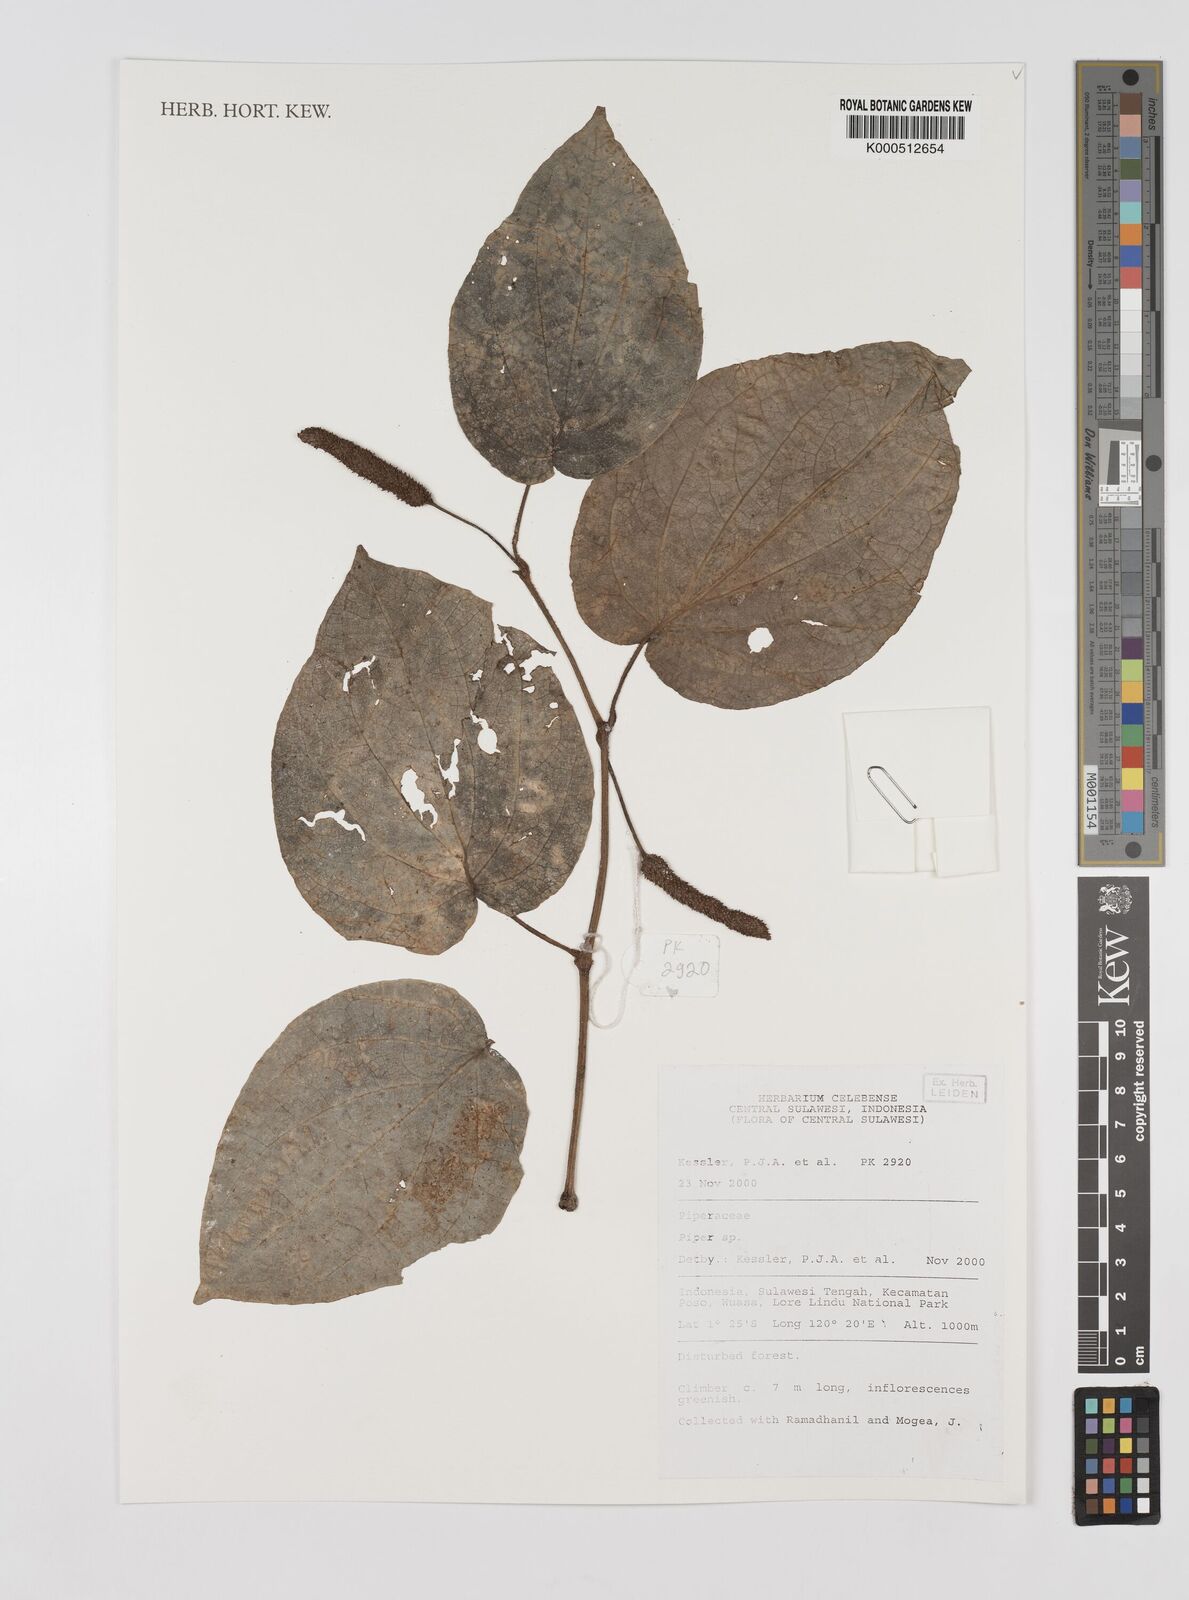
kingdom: Plantae
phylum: Tracheophyta
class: Magnoliopsida
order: Piperales
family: Piperaceae
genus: Piper
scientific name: Piper
